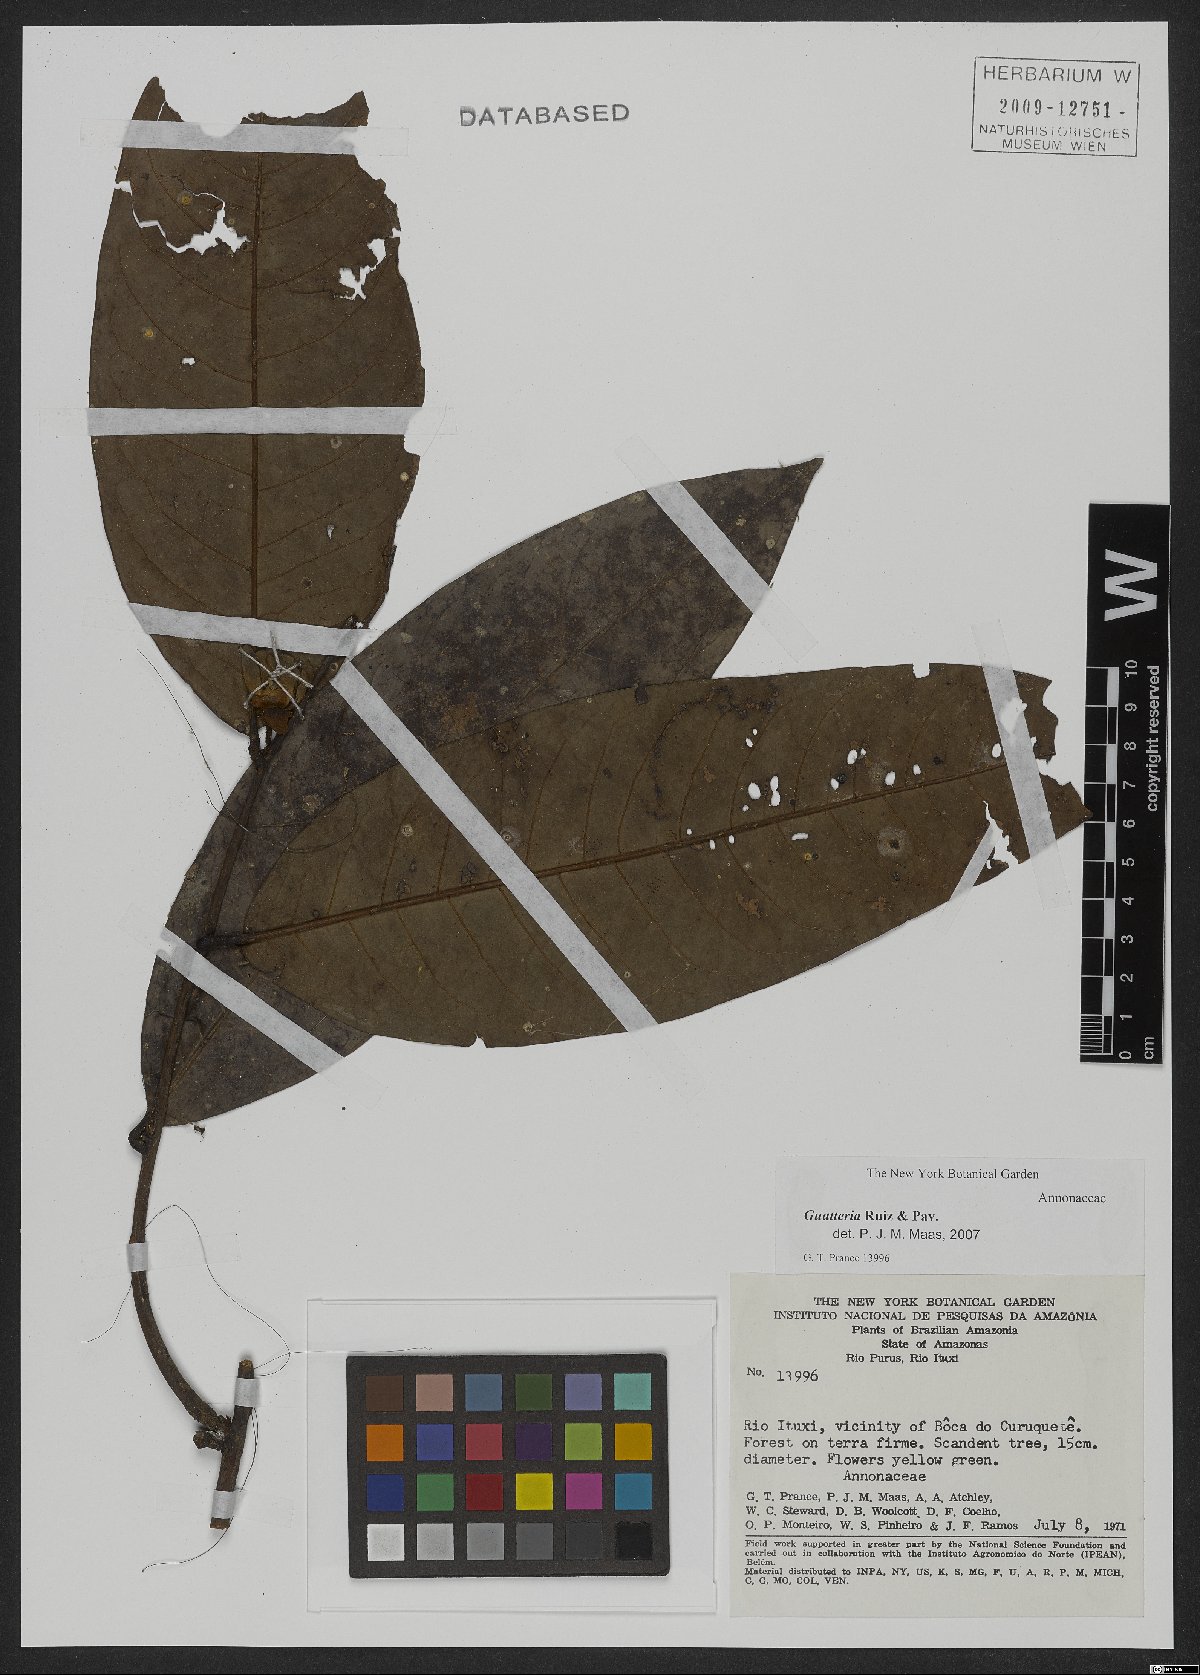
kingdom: Plantae
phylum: Tracheophyta
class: Magnoliopsida
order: Magnoliales
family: Annonaceae
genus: Guatteria
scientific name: Guatteria
